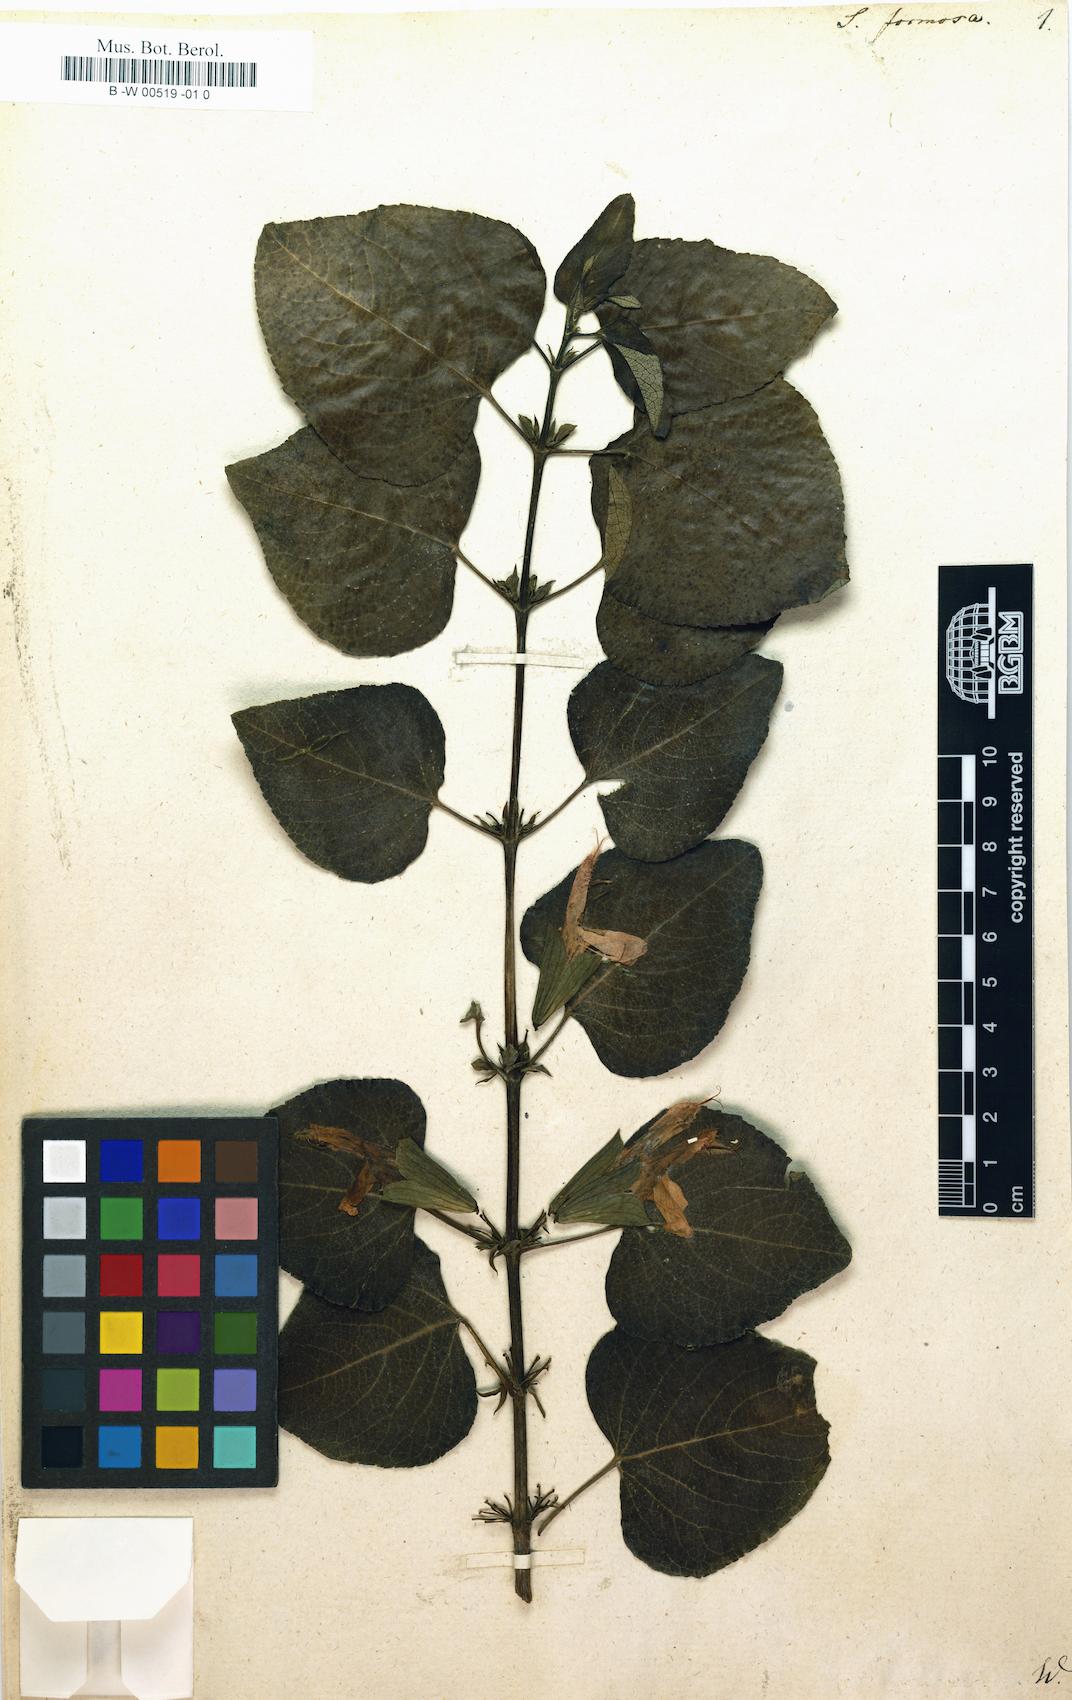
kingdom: Plantae
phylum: Tracheophyta
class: Magnoliopsida
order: Lamiales
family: Lamiaceae
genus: Salvia
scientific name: Salvia leonuroides
